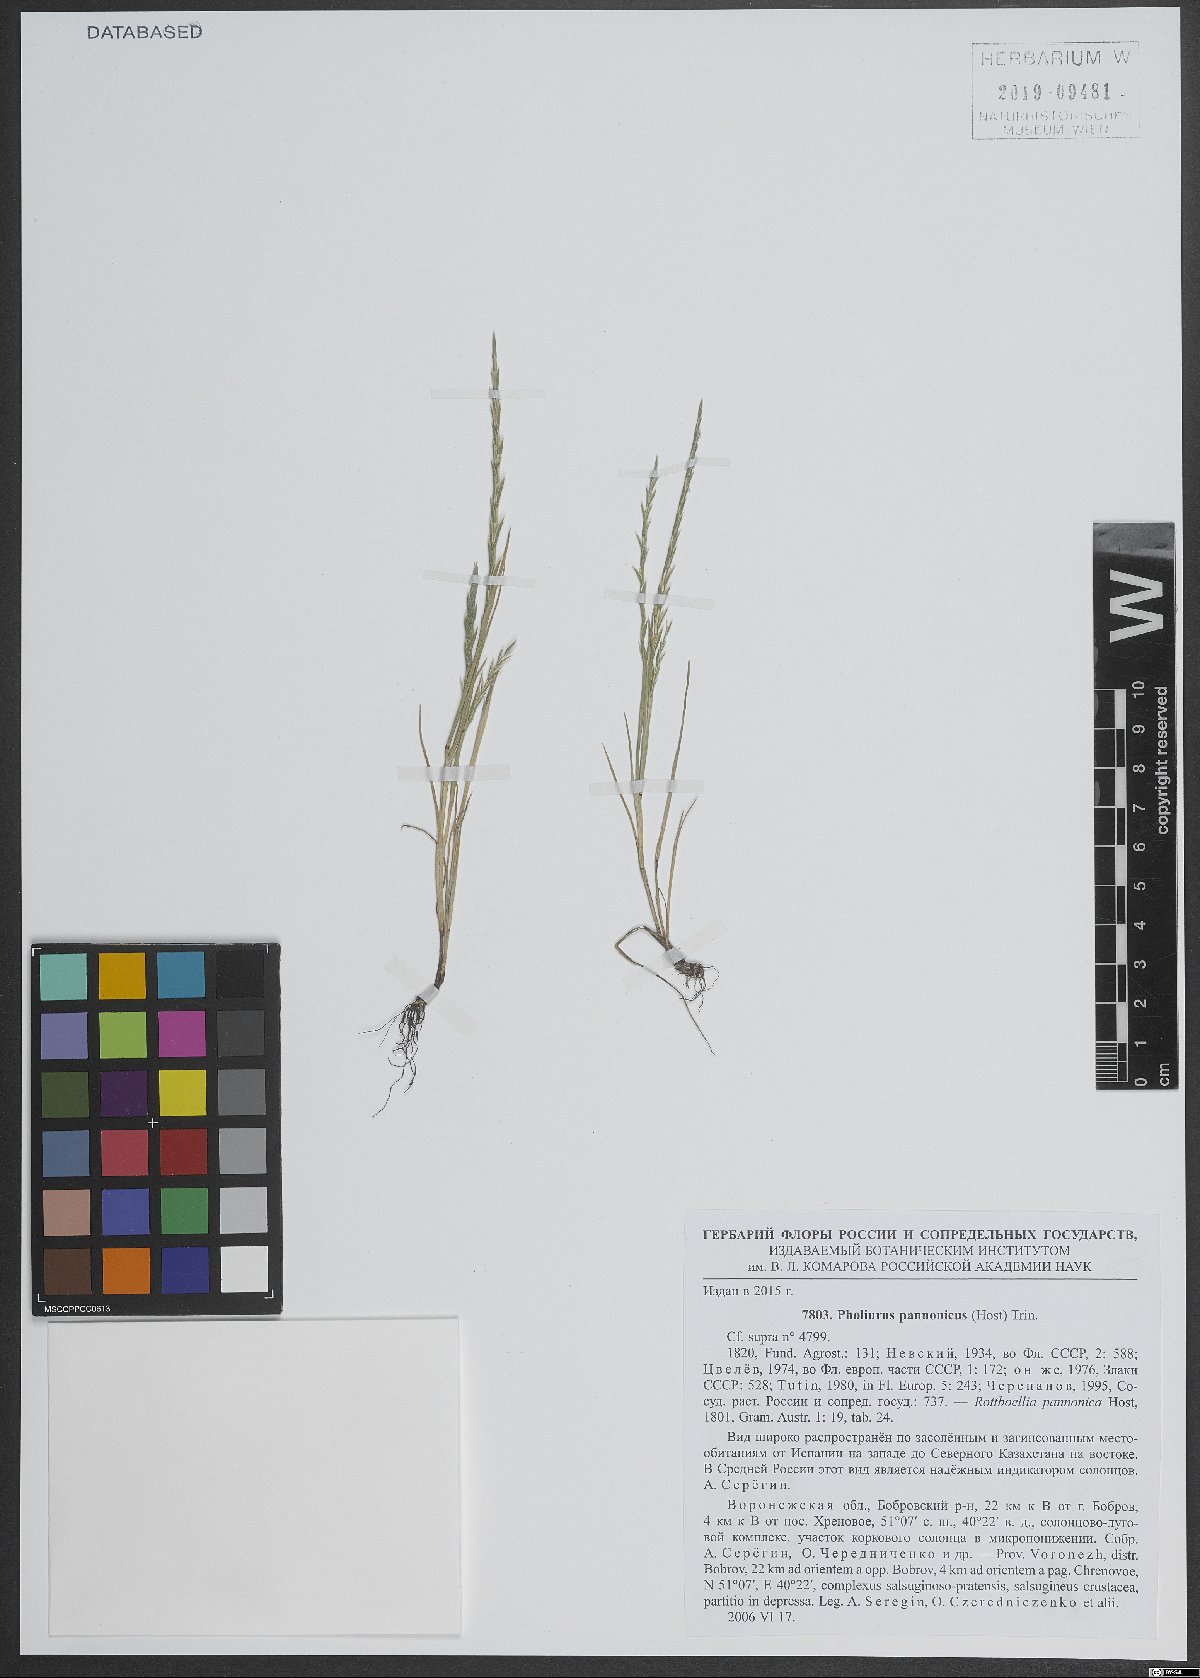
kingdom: Plantae
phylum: Tracheophyta
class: Liliopsida
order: Poales
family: Poaceae
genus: Pholiurus
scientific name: Pholiurus pannonicus
